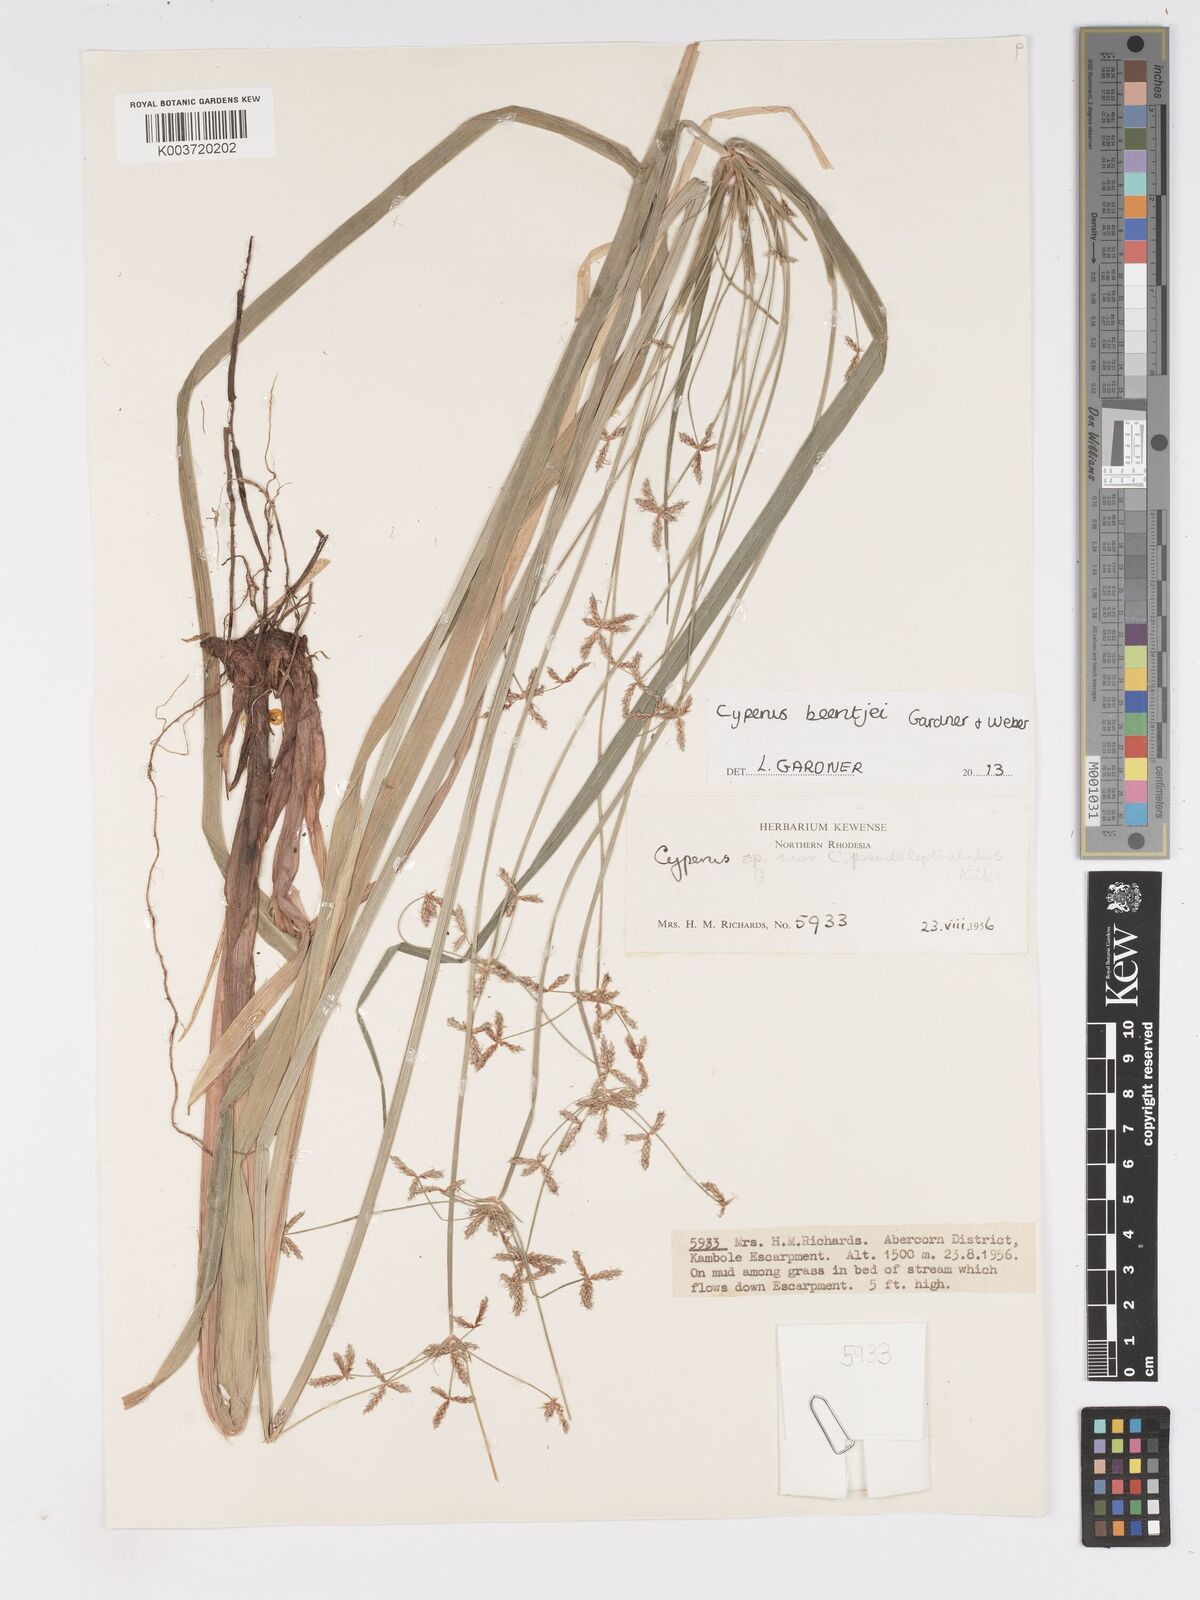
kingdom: Plantae
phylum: Tracheophyta
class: Liliopsida
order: Poales
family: Cyperaceae
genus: Cyperus
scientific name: Cyperus beentjei
